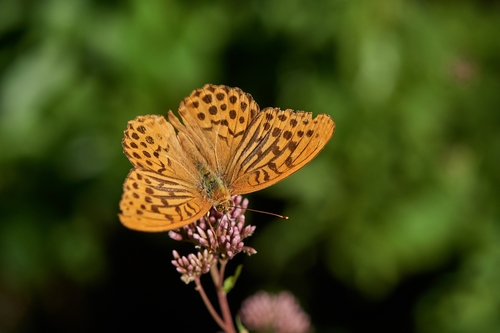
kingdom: Animalia
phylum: Arthropoda
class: Insecta
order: Lepidoptera
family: Nymphalidae
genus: Argynnis
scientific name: Argynnis paphia
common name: Silver-washed fritillary
